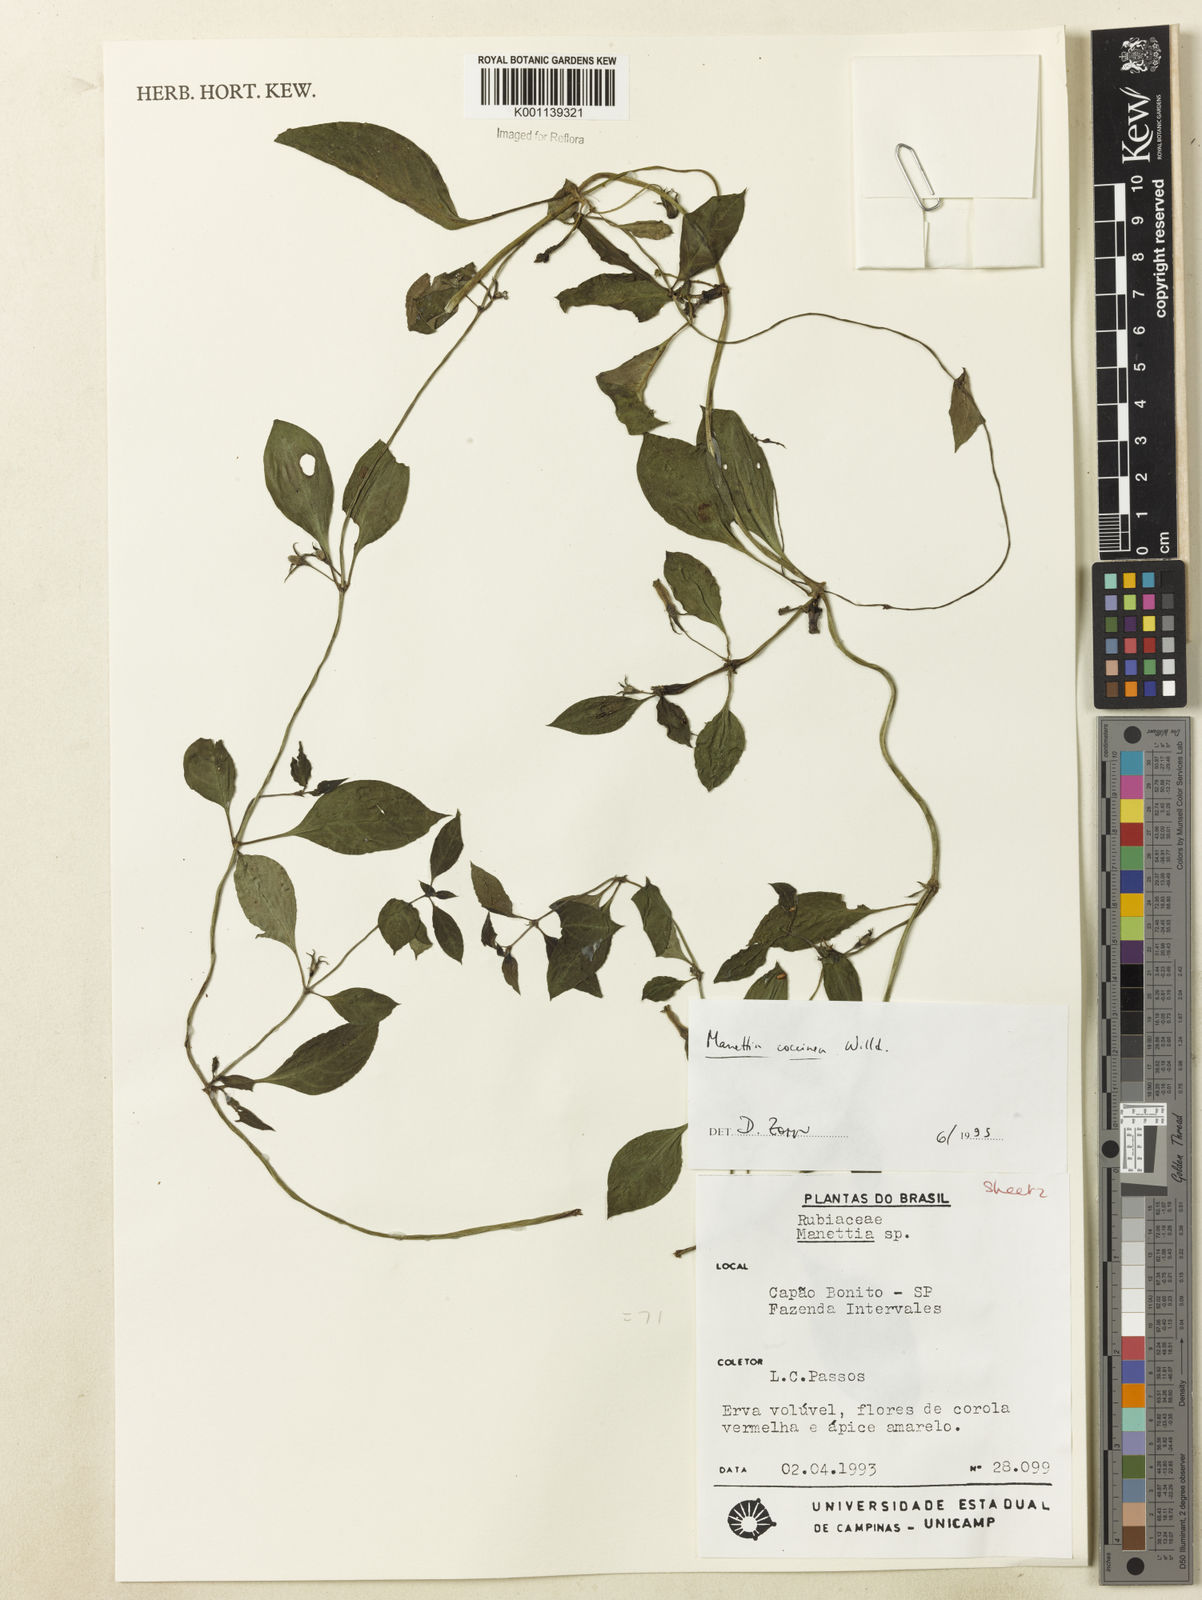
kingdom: Plantae
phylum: Tracheophyta
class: Magnoliopsida
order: Gentianales
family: Rubiaceae
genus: Manettia
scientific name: Manettia
